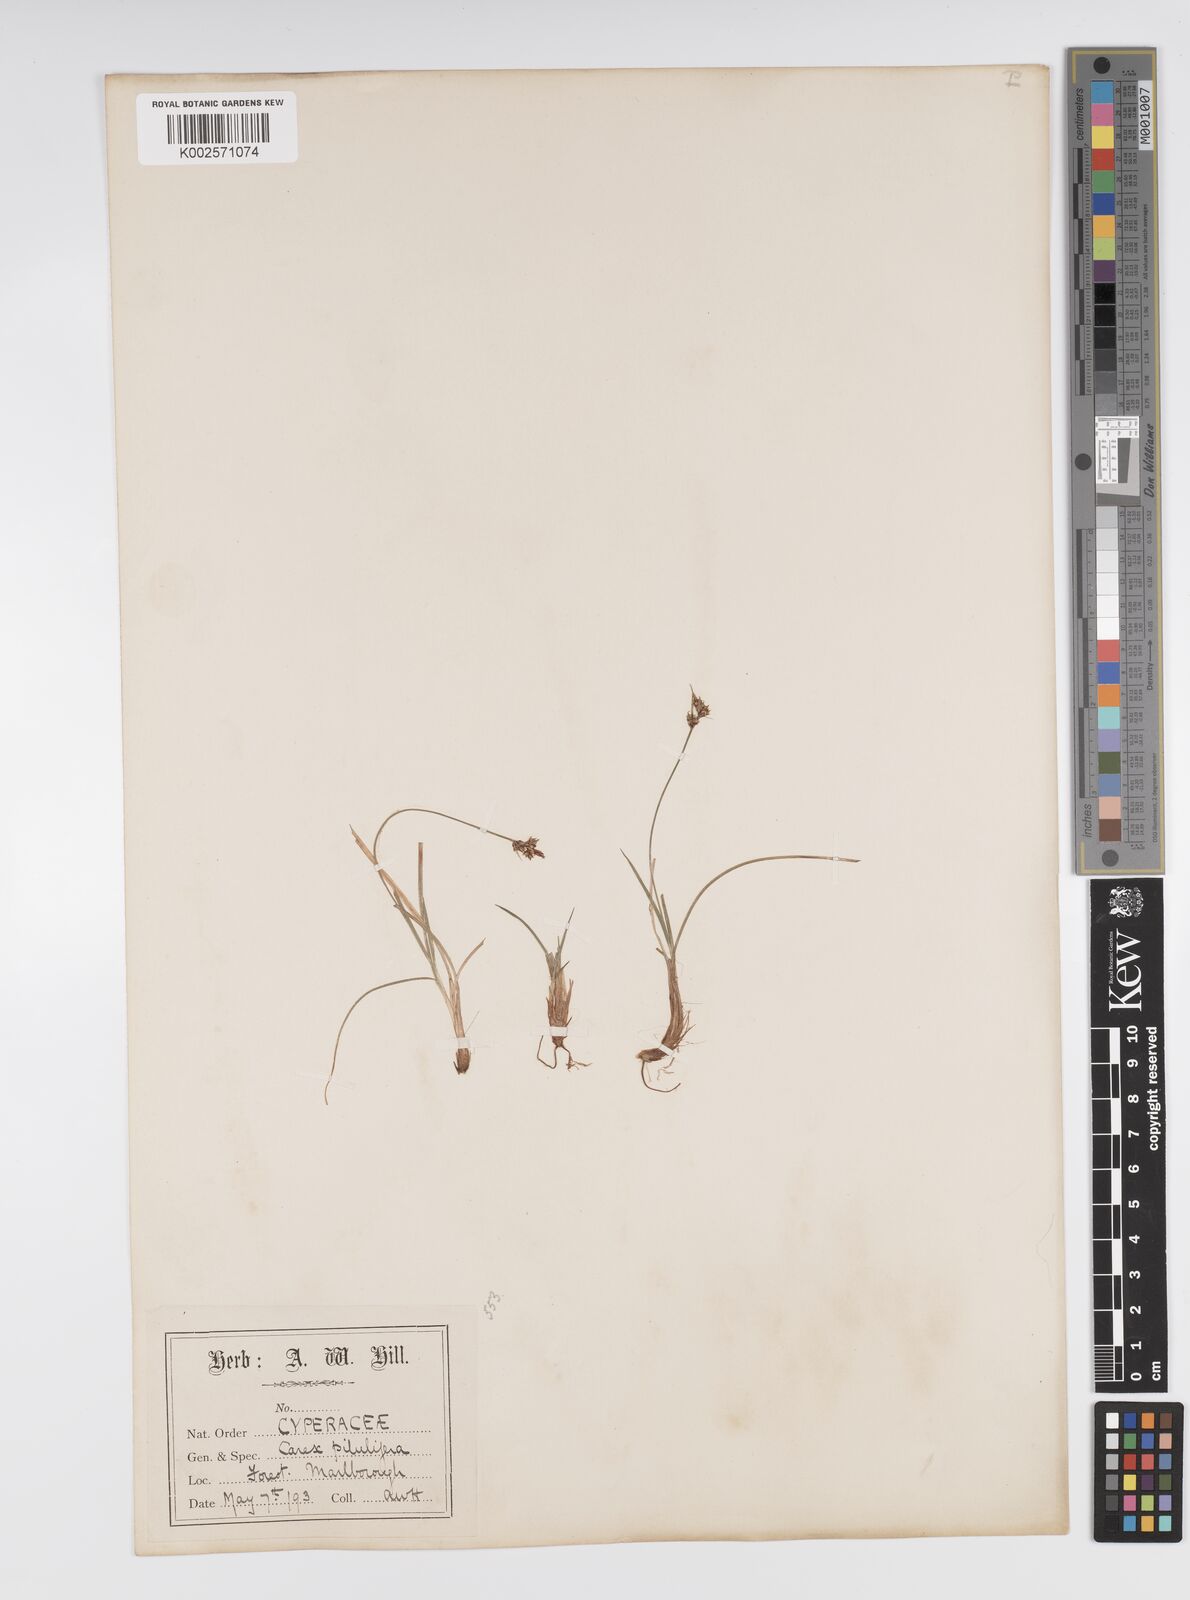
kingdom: Plantae
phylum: Tracheophyta
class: Liliopsida
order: Poales
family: Cyperaceae
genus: Carex
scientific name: Carex pilulifera
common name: Pill sedge
